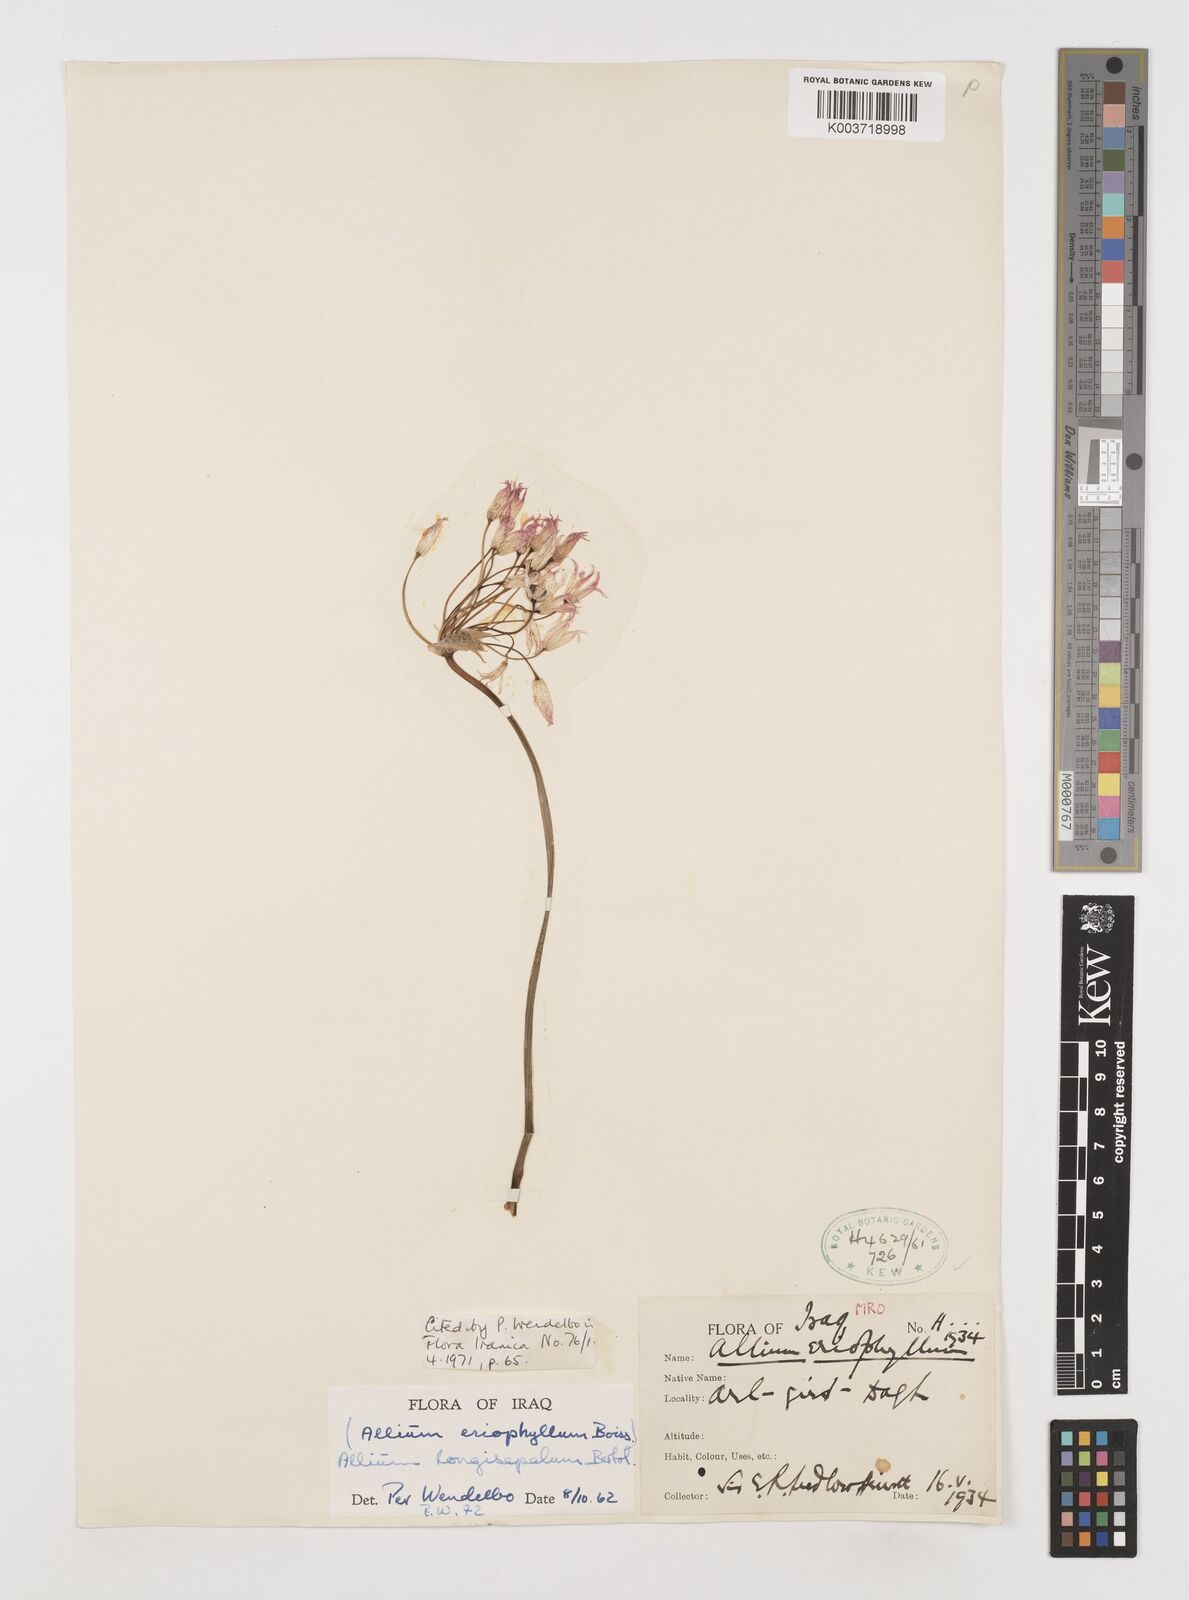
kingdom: Plantae
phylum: Tracheophyta
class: Liliopsida
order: Asparagales
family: Amaryllidaceae
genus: Allium
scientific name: Allium longisepalum
